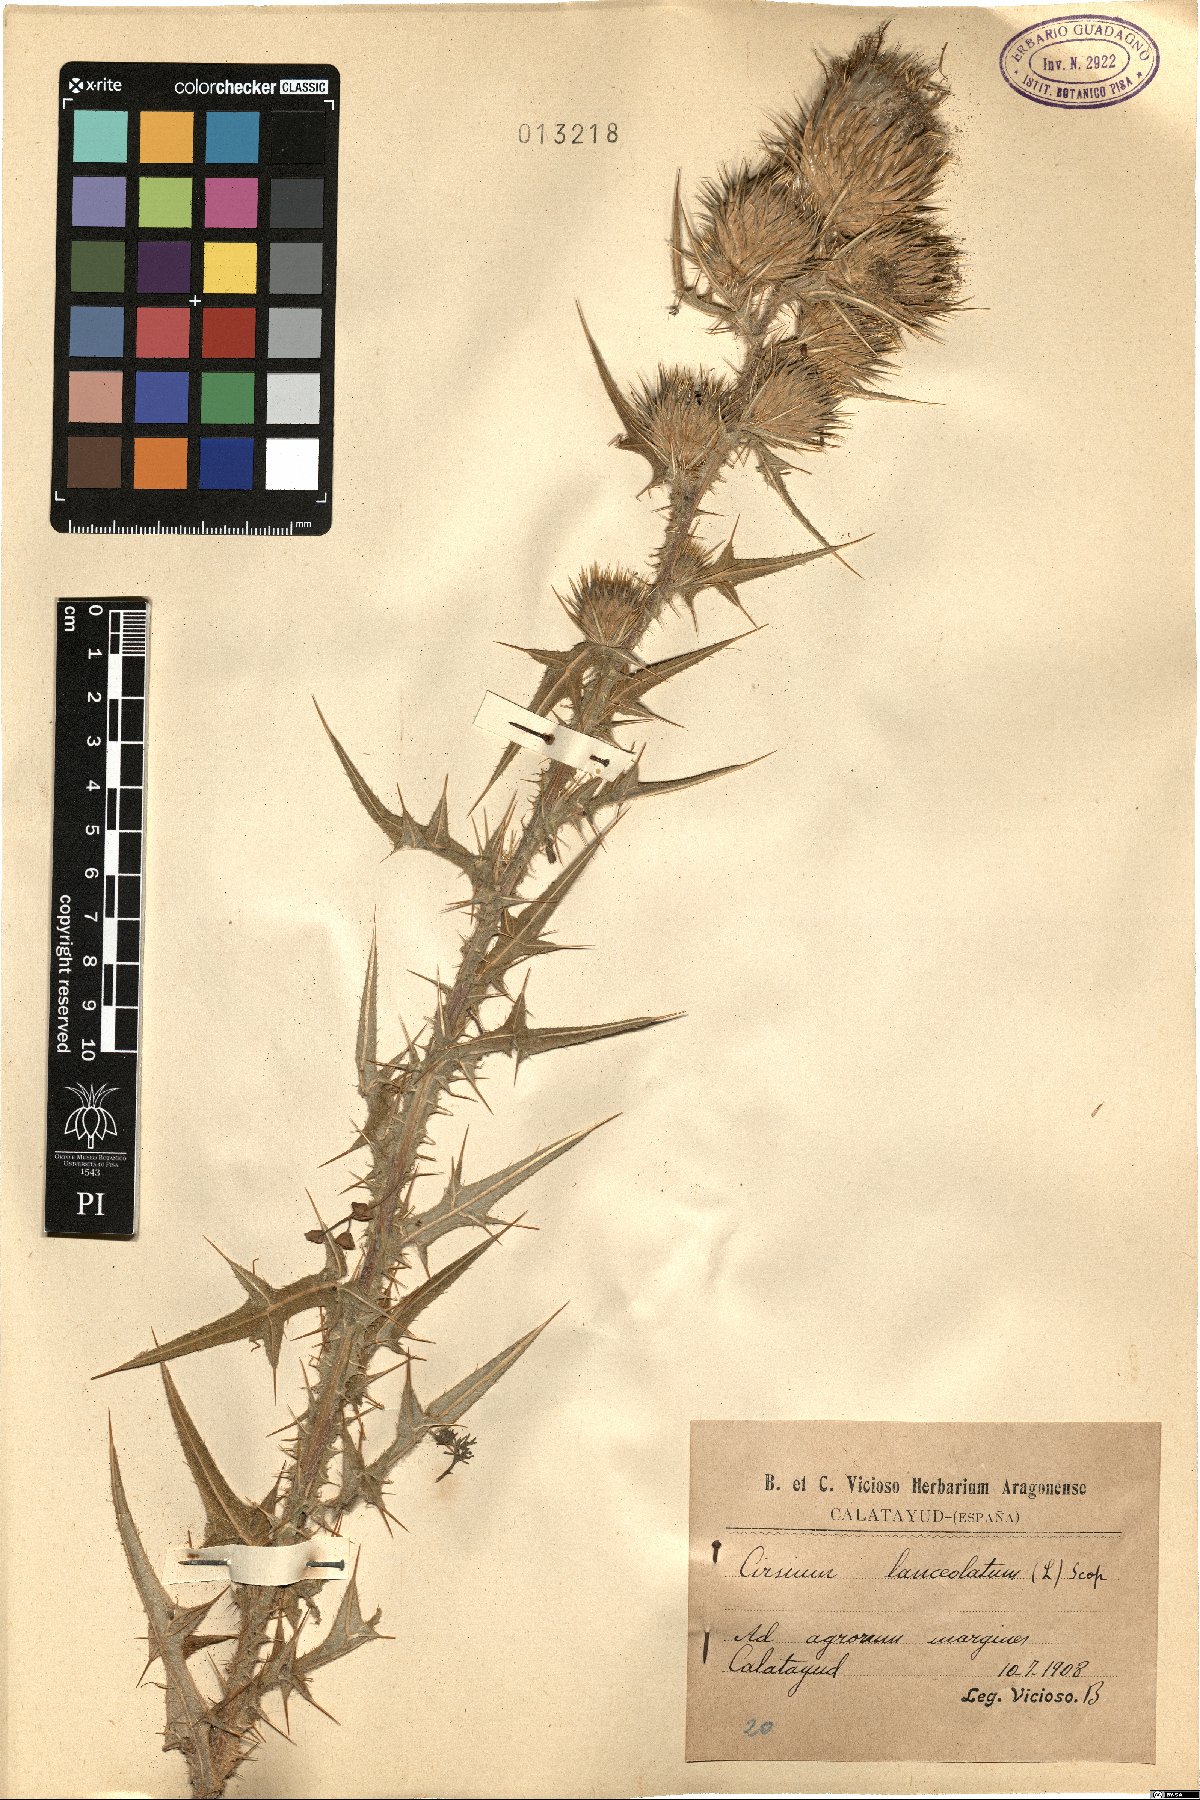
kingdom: Plantae
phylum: Tracheophyta
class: Magnoliopsida
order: Asterales
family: Asteraceae
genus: Cirsium
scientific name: Cirsium vulgare
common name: Bull thistle
